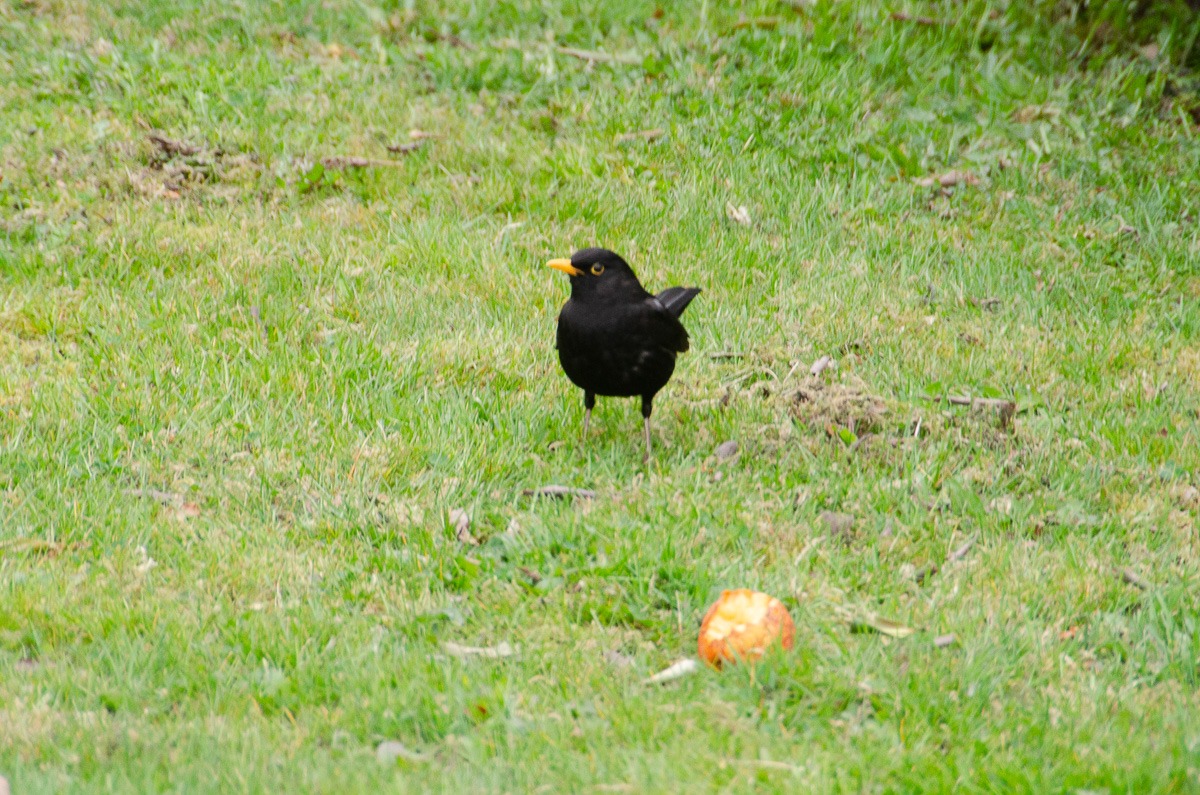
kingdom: Animalia
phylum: Chordata
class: Aves
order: Passeriformes
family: Turdidae
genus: Turdus
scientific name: Turdus merula
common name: Solsort
